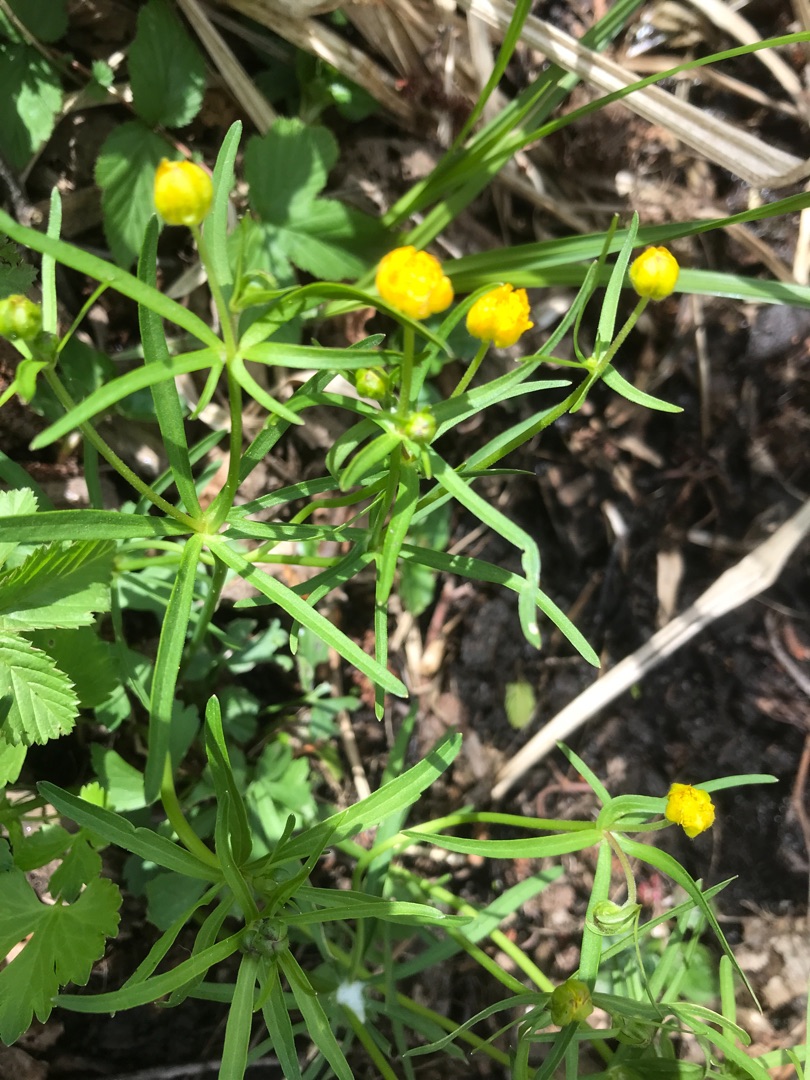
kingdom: Plantae
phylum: Tracheophyta
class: Magnoliopsida
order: Ranunculales
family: Ranunculaceae
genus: Ranunculus
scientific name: Ranunculus auricomus
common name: Nyrebladet ranunkel
